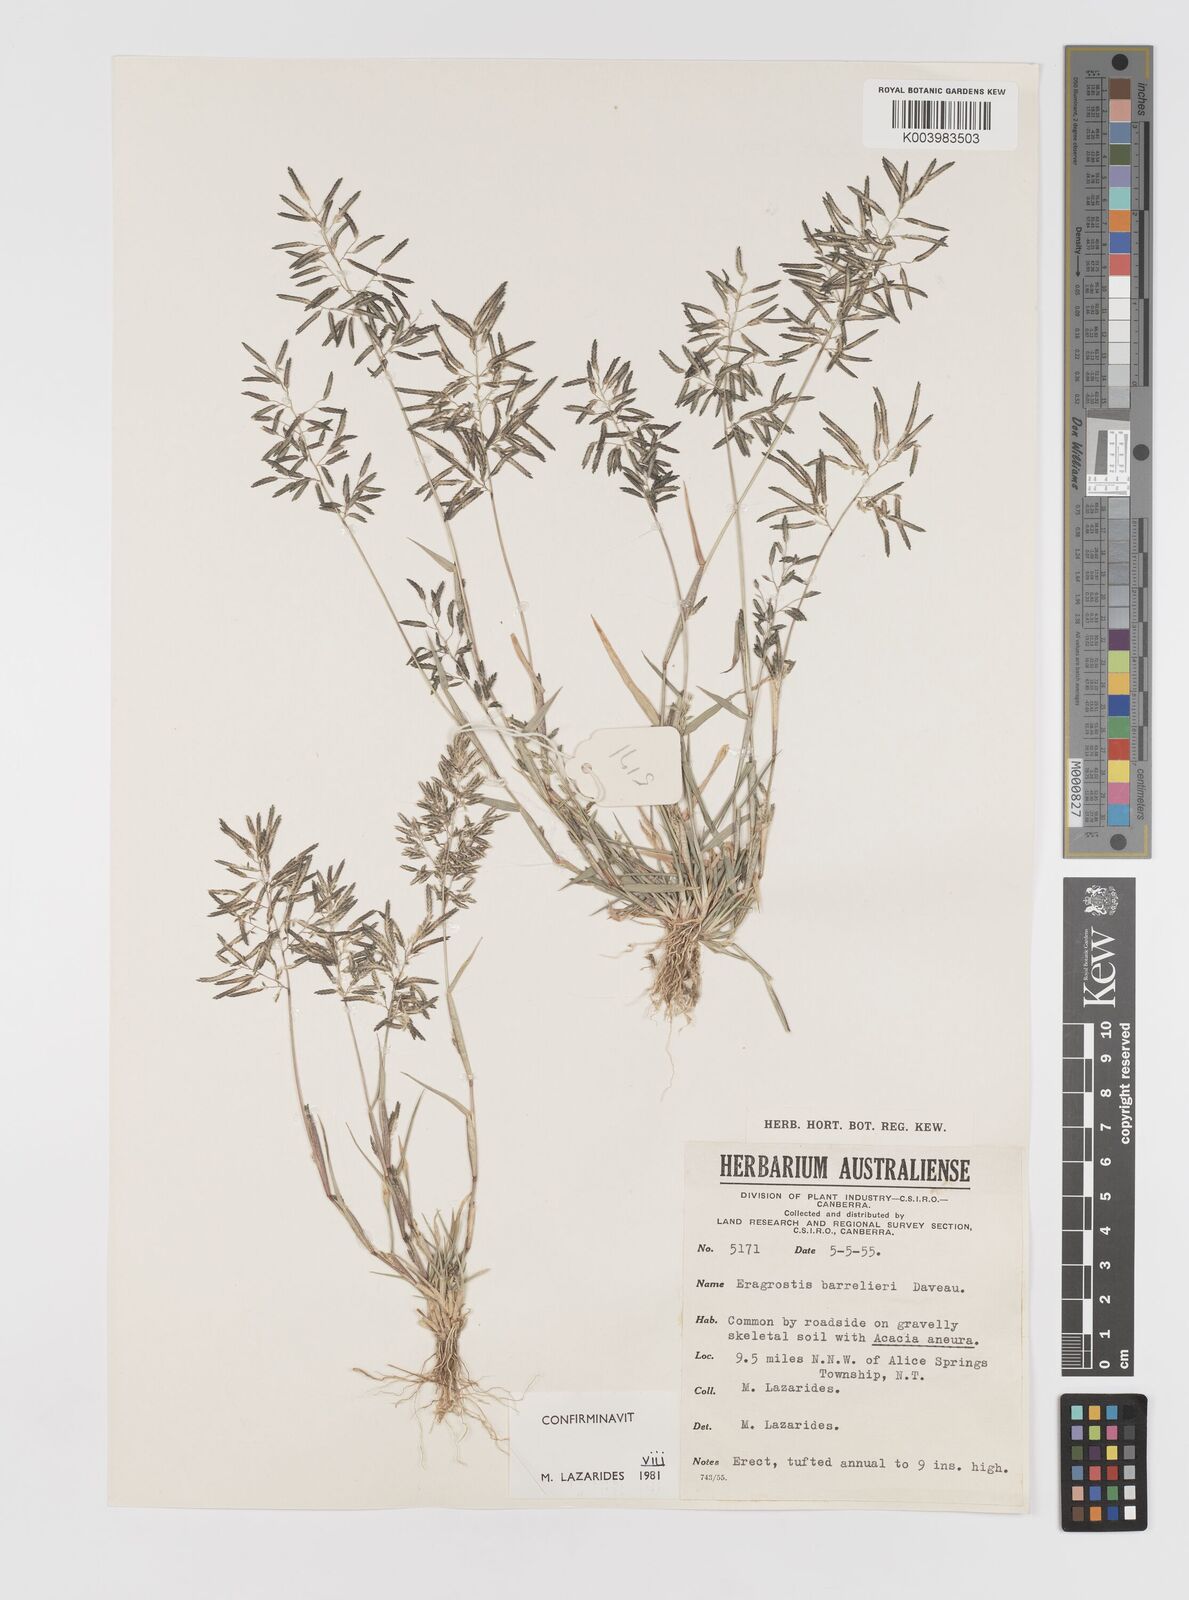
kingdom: Plantae
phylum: Tracheophyta
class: Liliopsida
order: Poales
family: Poaceae
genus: Eragrostis
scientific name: Eragrostis barrelieri
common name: Mediterranean lovegrass
